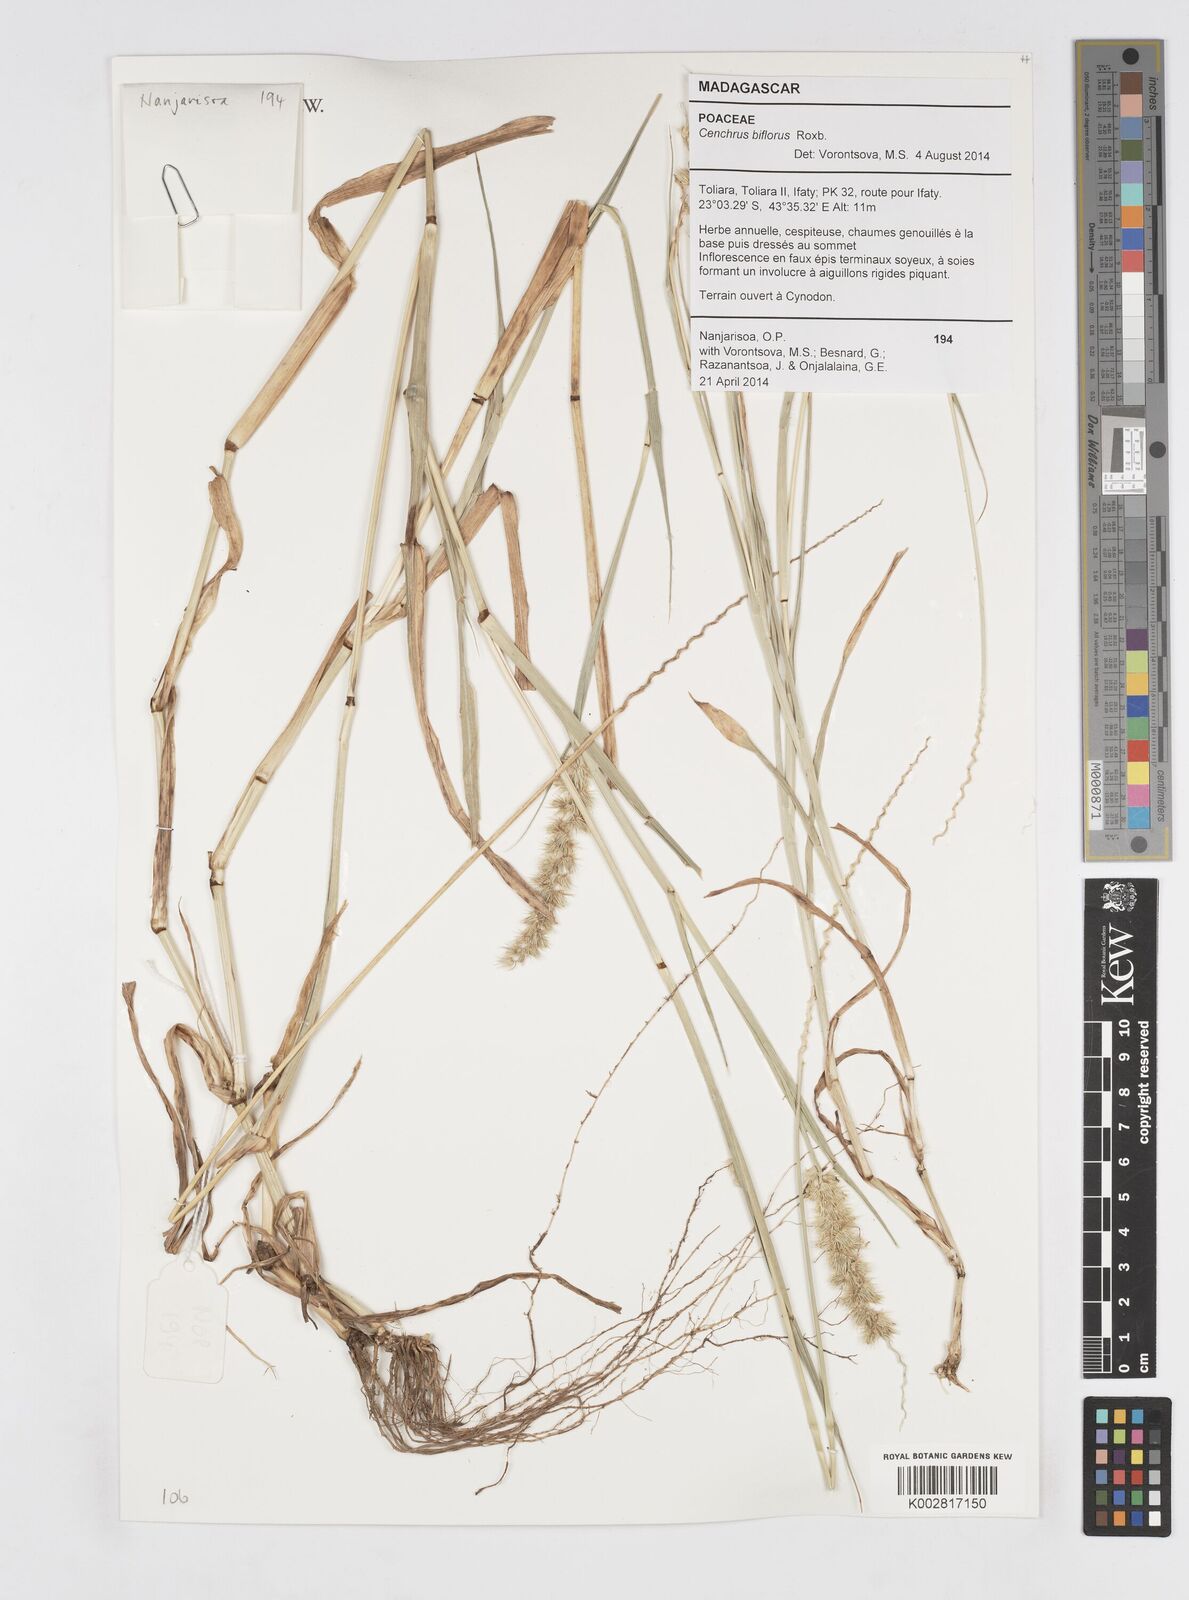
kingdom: Plantae
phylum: Tracheophyta
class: Liliopsida
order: Poales
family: Poaceae
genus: Cenchrus
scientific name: Cenchrus biflorus
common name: Indian sandbur
